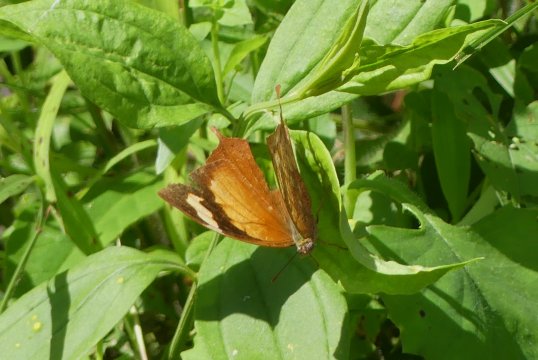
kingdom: Animalia
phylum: Arthropoda
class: Insecta
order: Lepidoptera
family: Nymphalidae
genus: Fountainea
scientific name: Fountainea
